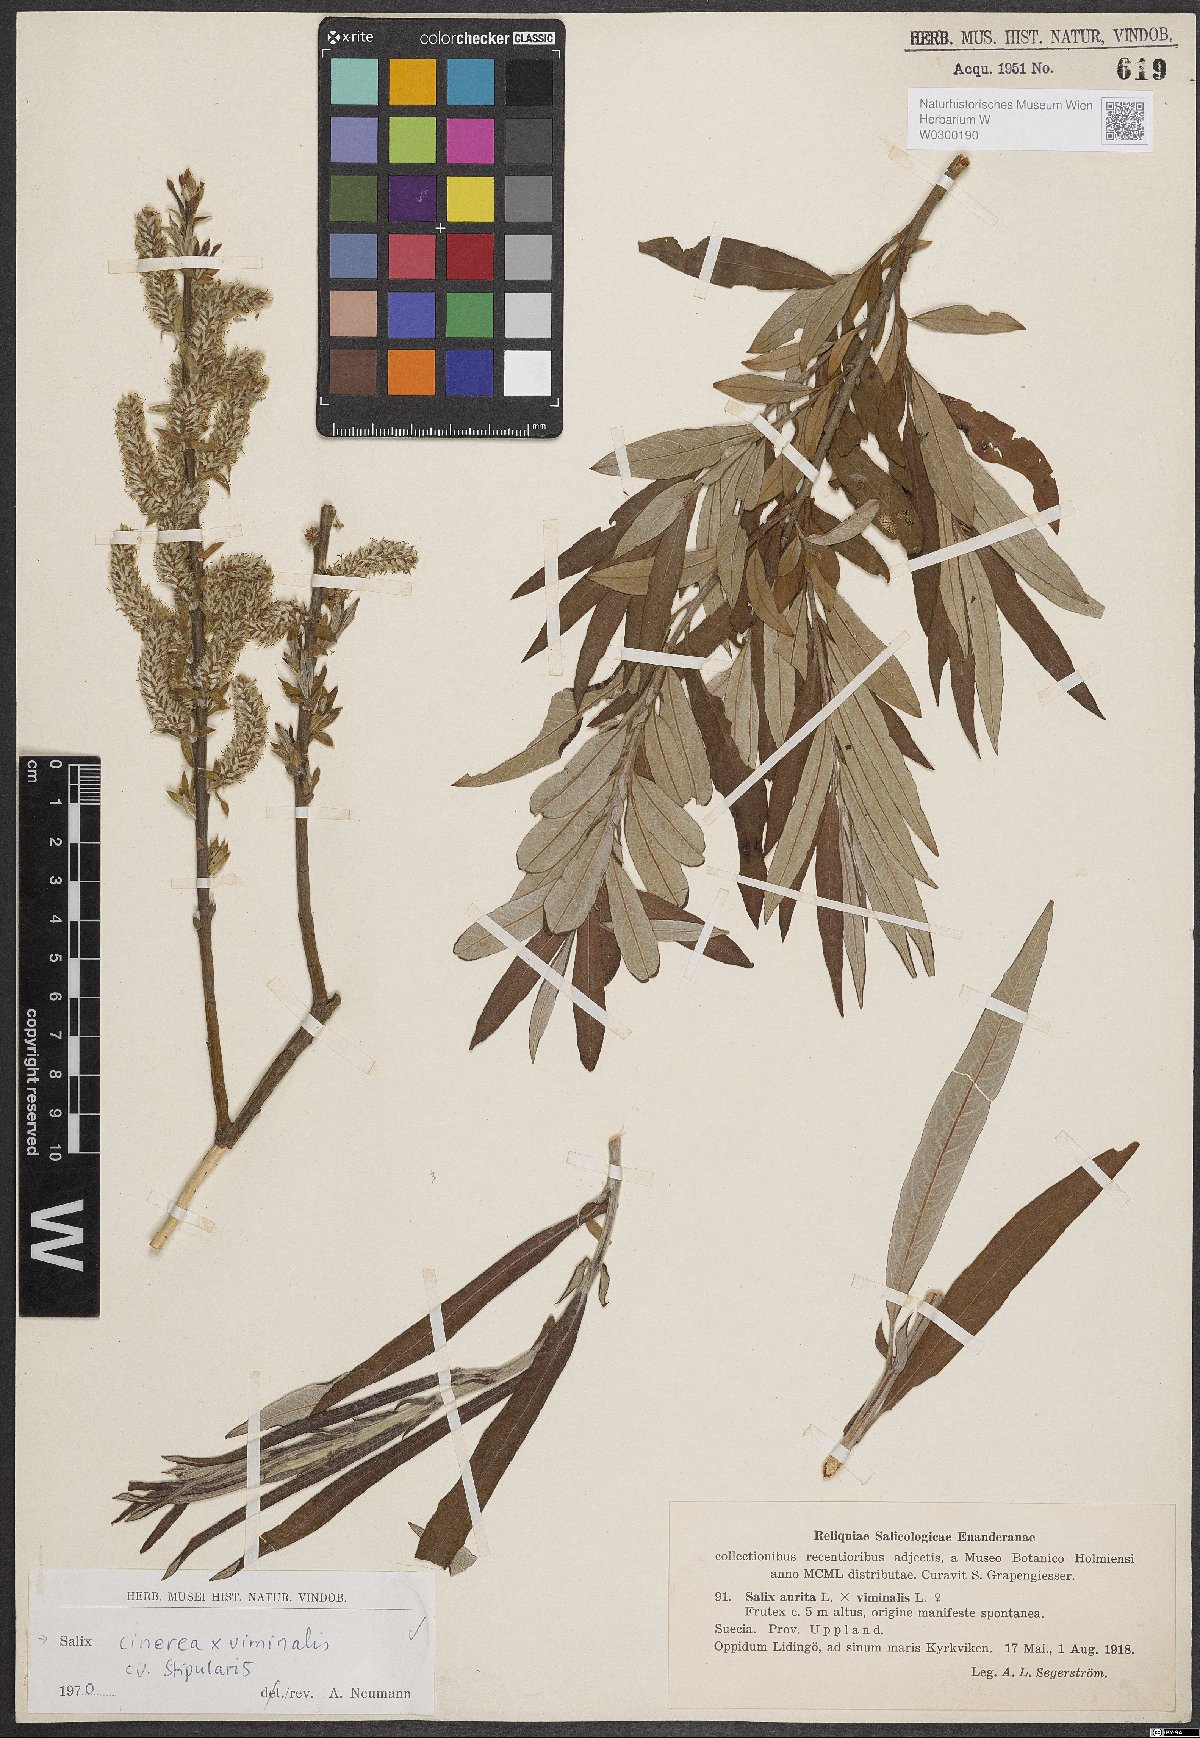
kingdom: Plantae
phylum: Tracheophyta
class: Magnoliopsida
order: Malpighiales
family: Salicaceae
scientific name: Salicaceae
